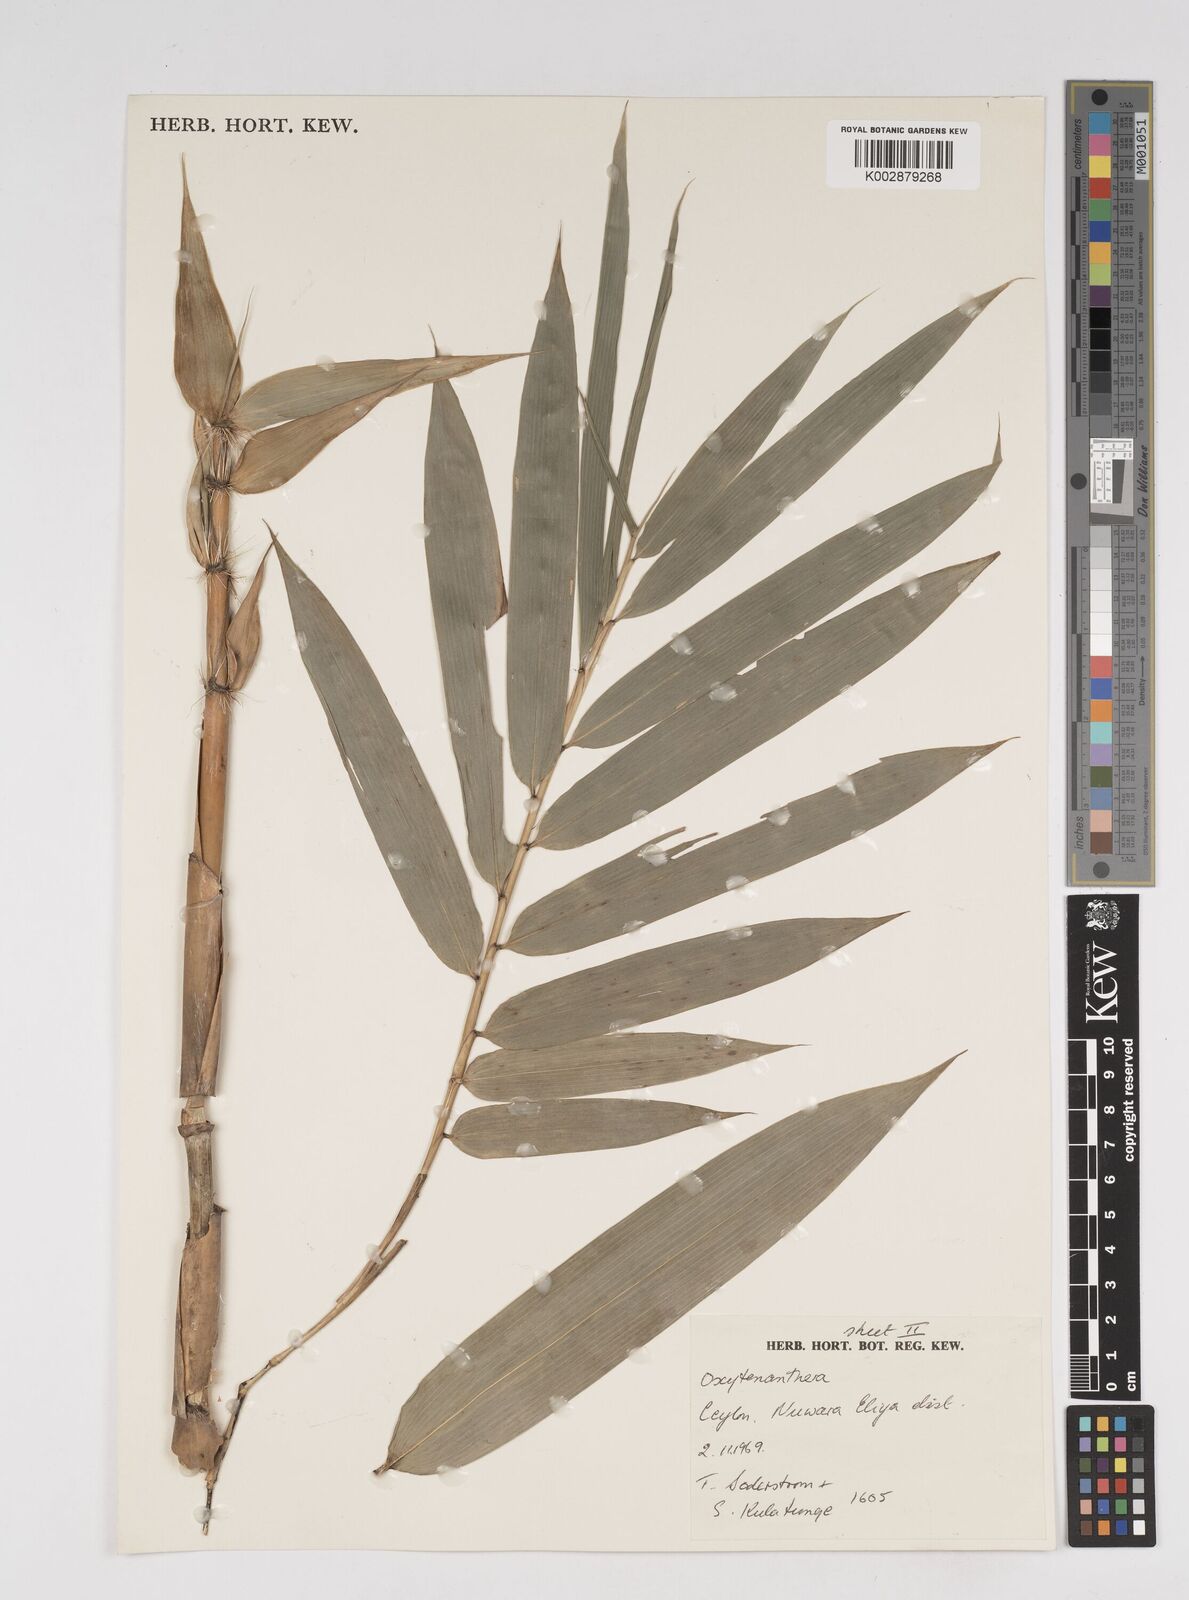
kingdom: Plantae
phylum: Tracheophyta
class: Liliopsida
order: Poales
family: Poaceae
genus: Dendrocalamus
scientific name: Dendrocalamus
